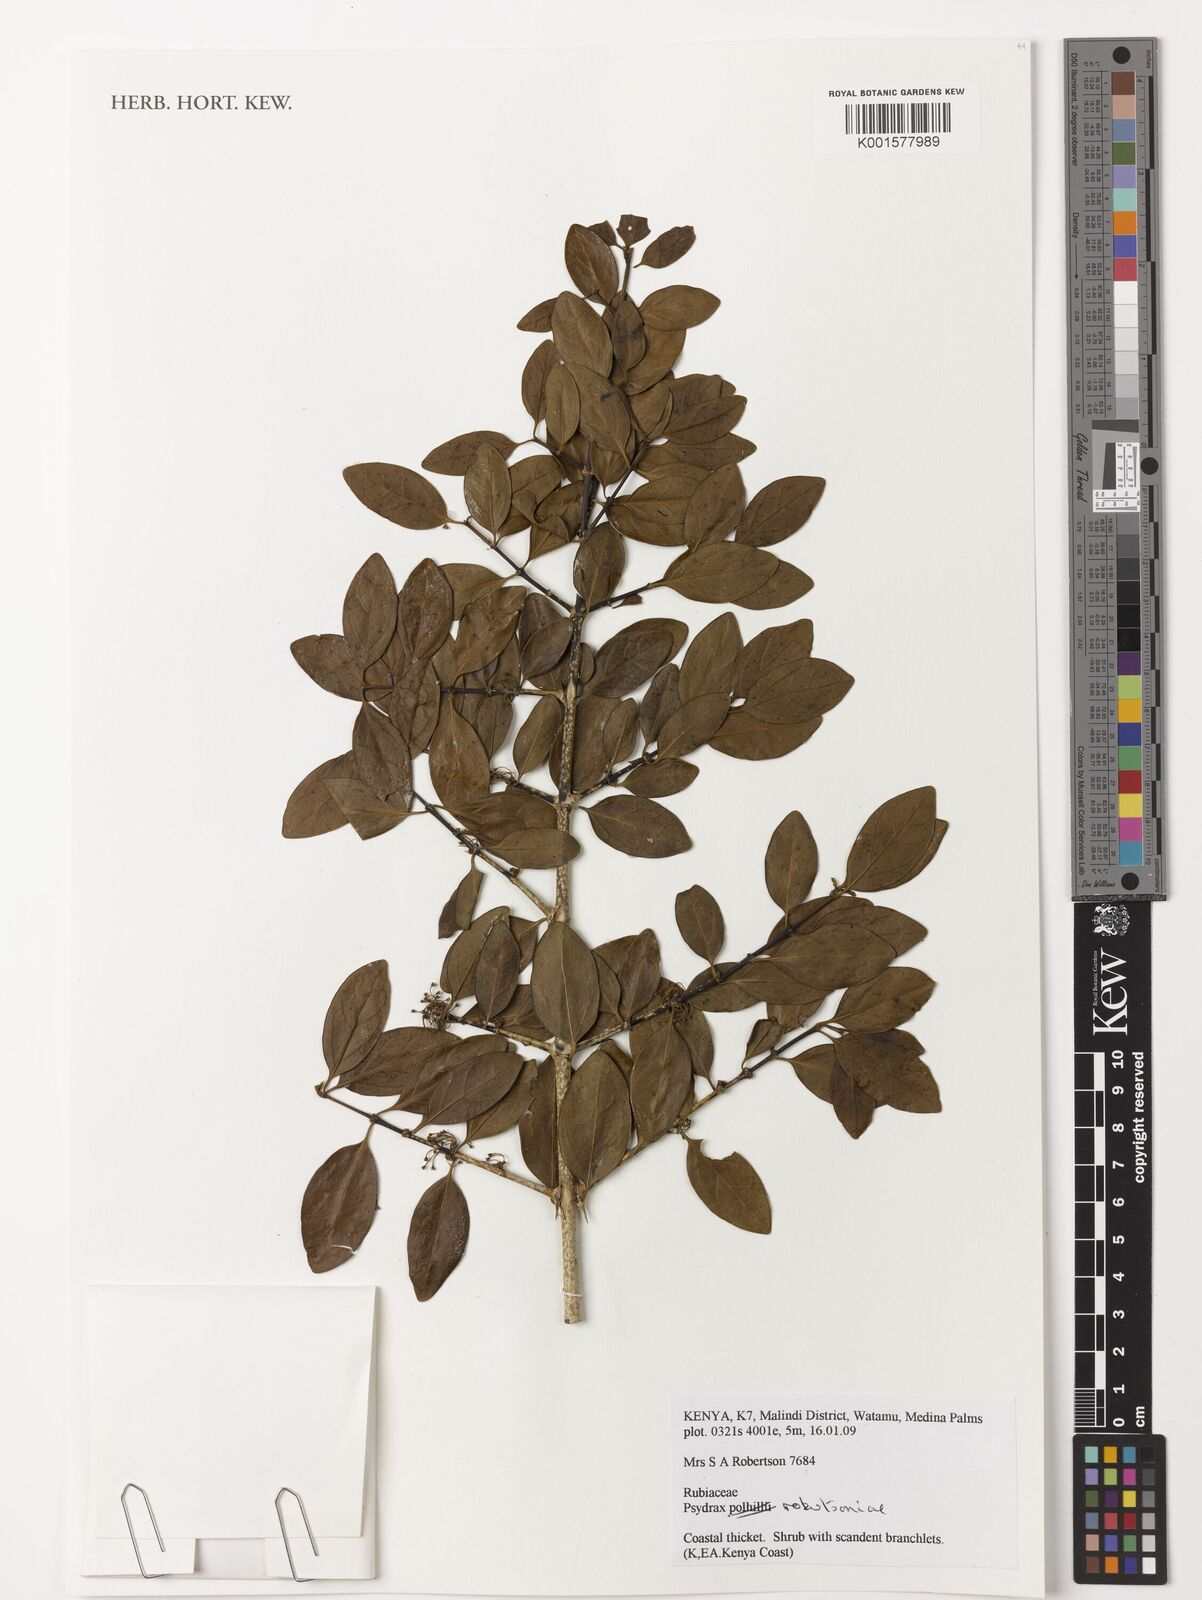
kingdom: Plantae
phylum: Tracheophyta
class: Magnoliopsida
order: Gentianales
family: Rubiaceae
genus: Psydrax
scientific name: Psydrax robertsoniae
